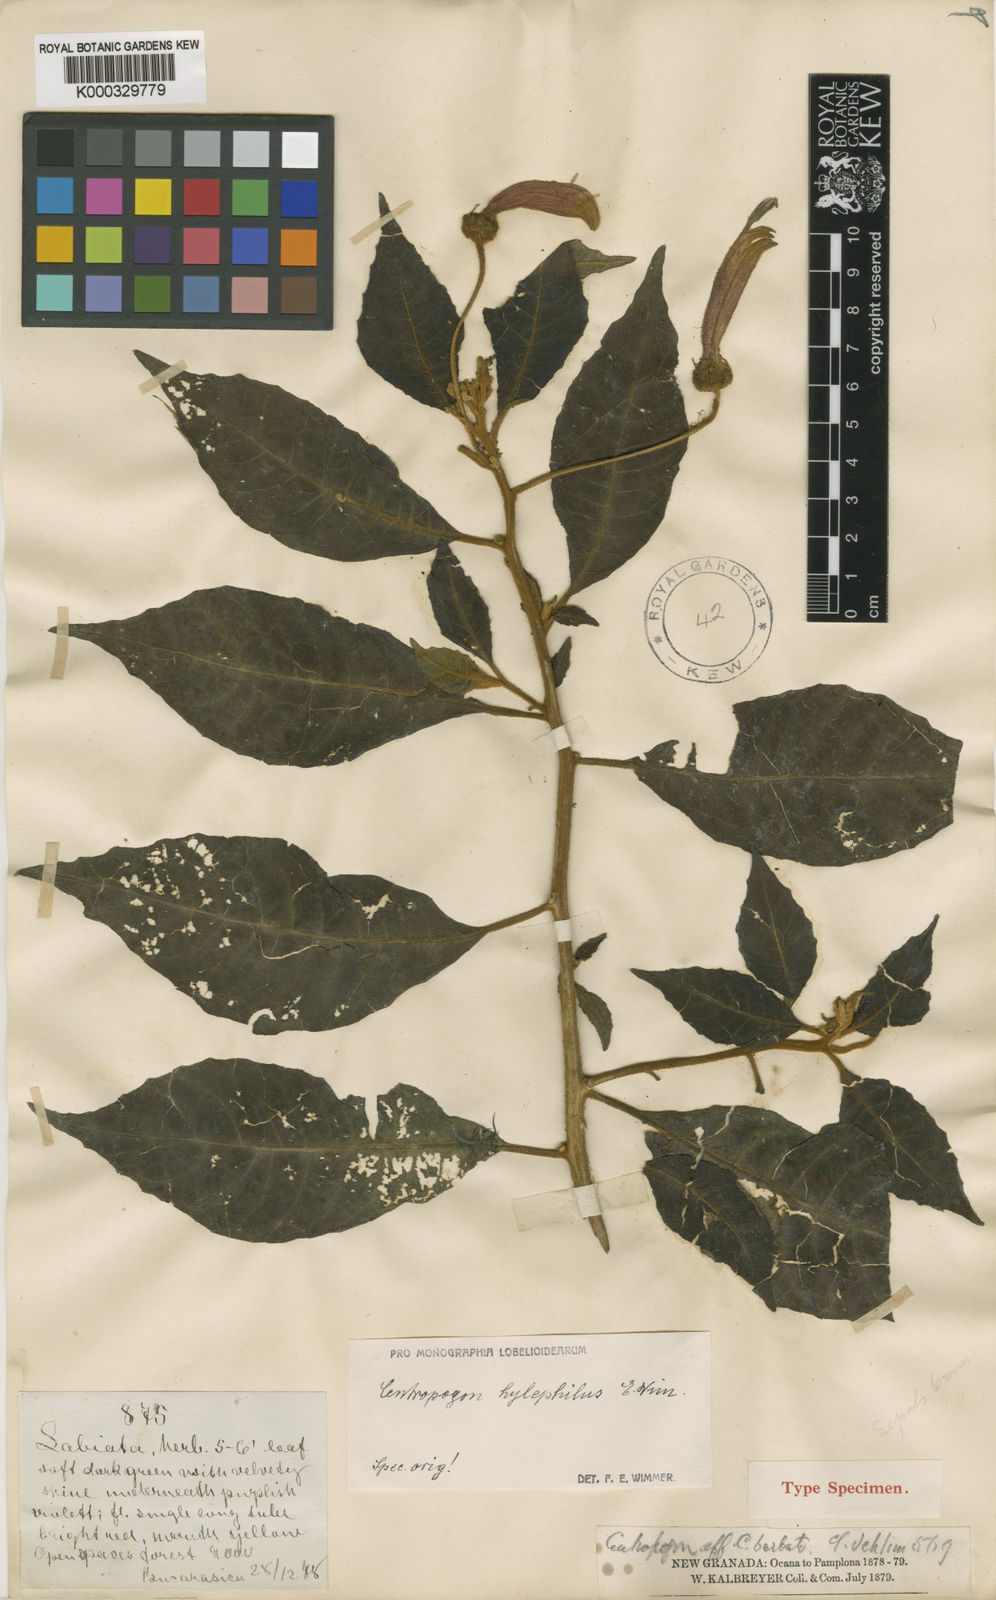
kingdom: Plantae
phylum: Tracheophyta
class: Magnoliopsida
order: Asterales
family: Campanulaceae
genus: Centropogon
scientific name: Centropogon hylephilus
